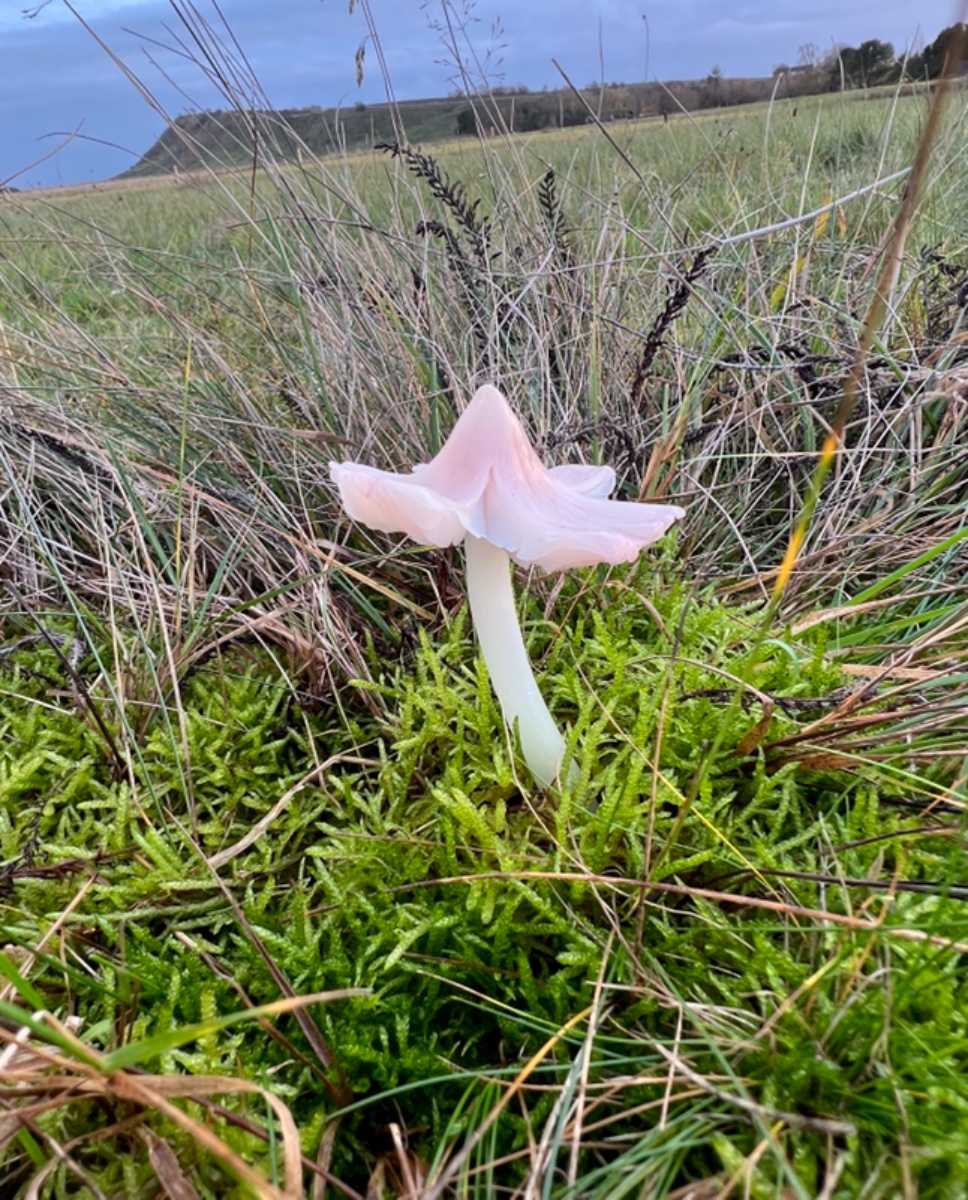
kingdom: Fungi
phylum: Basidiomycota
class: Agaricomycetes
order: Agaricales
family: Hygrophoraceae
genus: Porpolomopsis
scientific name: Porpolomopsis calyptriformis
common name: rosenrød vokshat
